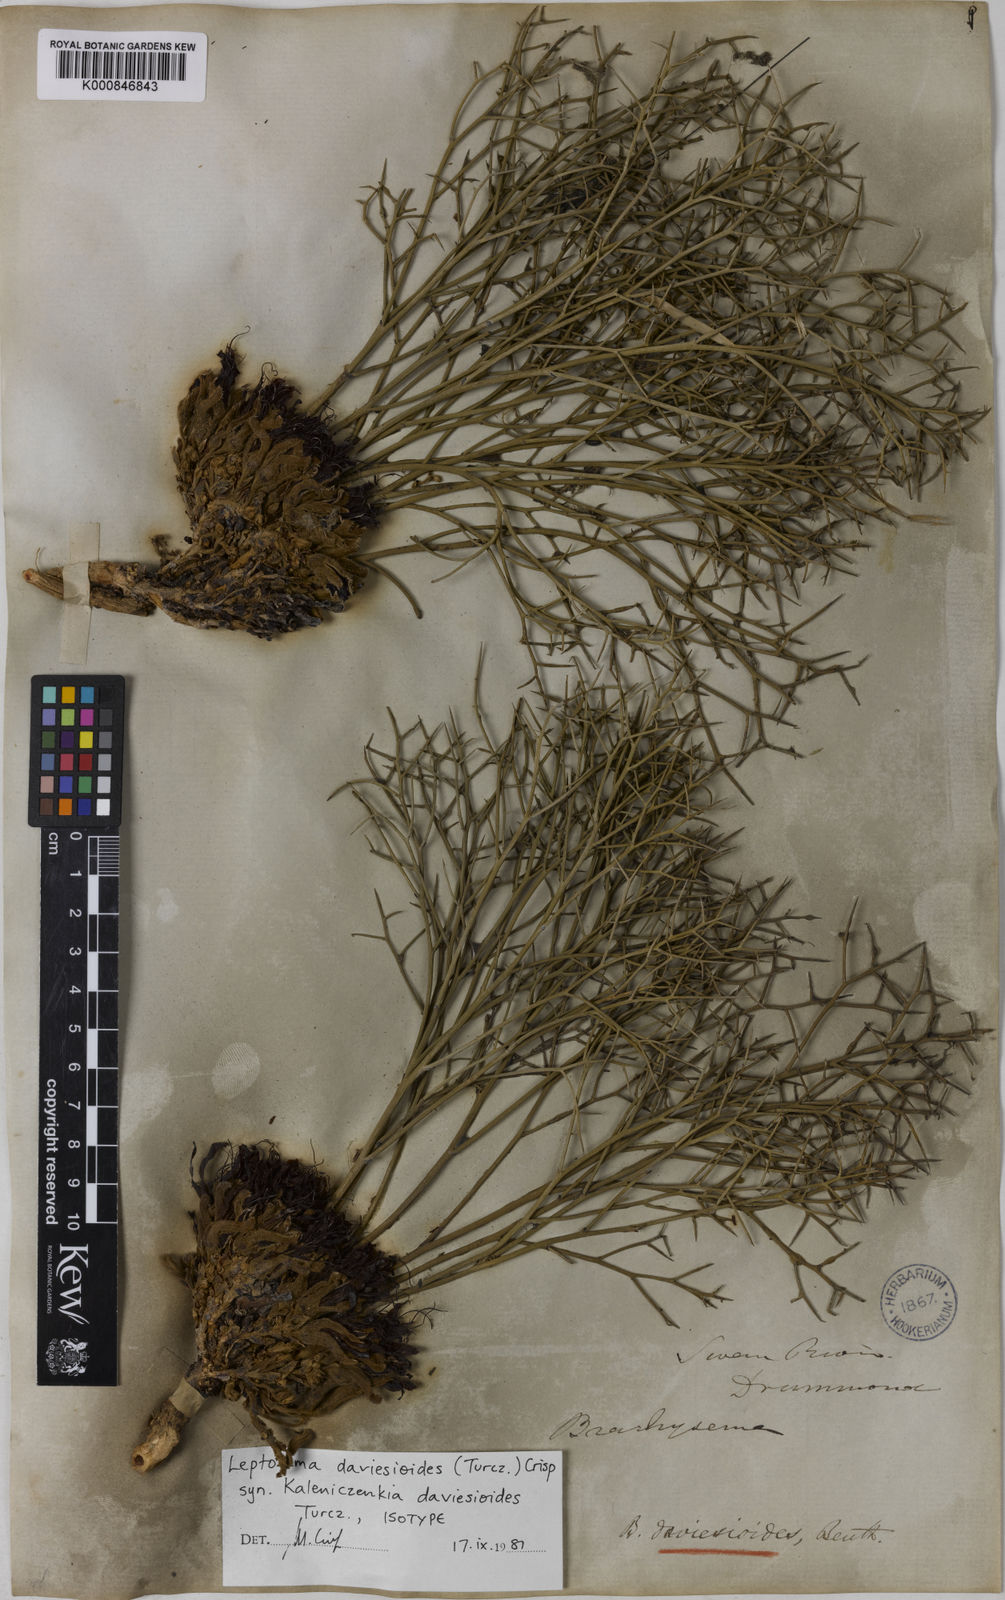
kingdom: Plantae
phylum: Tracheophyta
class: Magnoliopsida
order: Fabales
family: Fabaceae
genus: Leptosema
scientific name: Leptosema daviesioides
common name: Upside-down pea-bush
